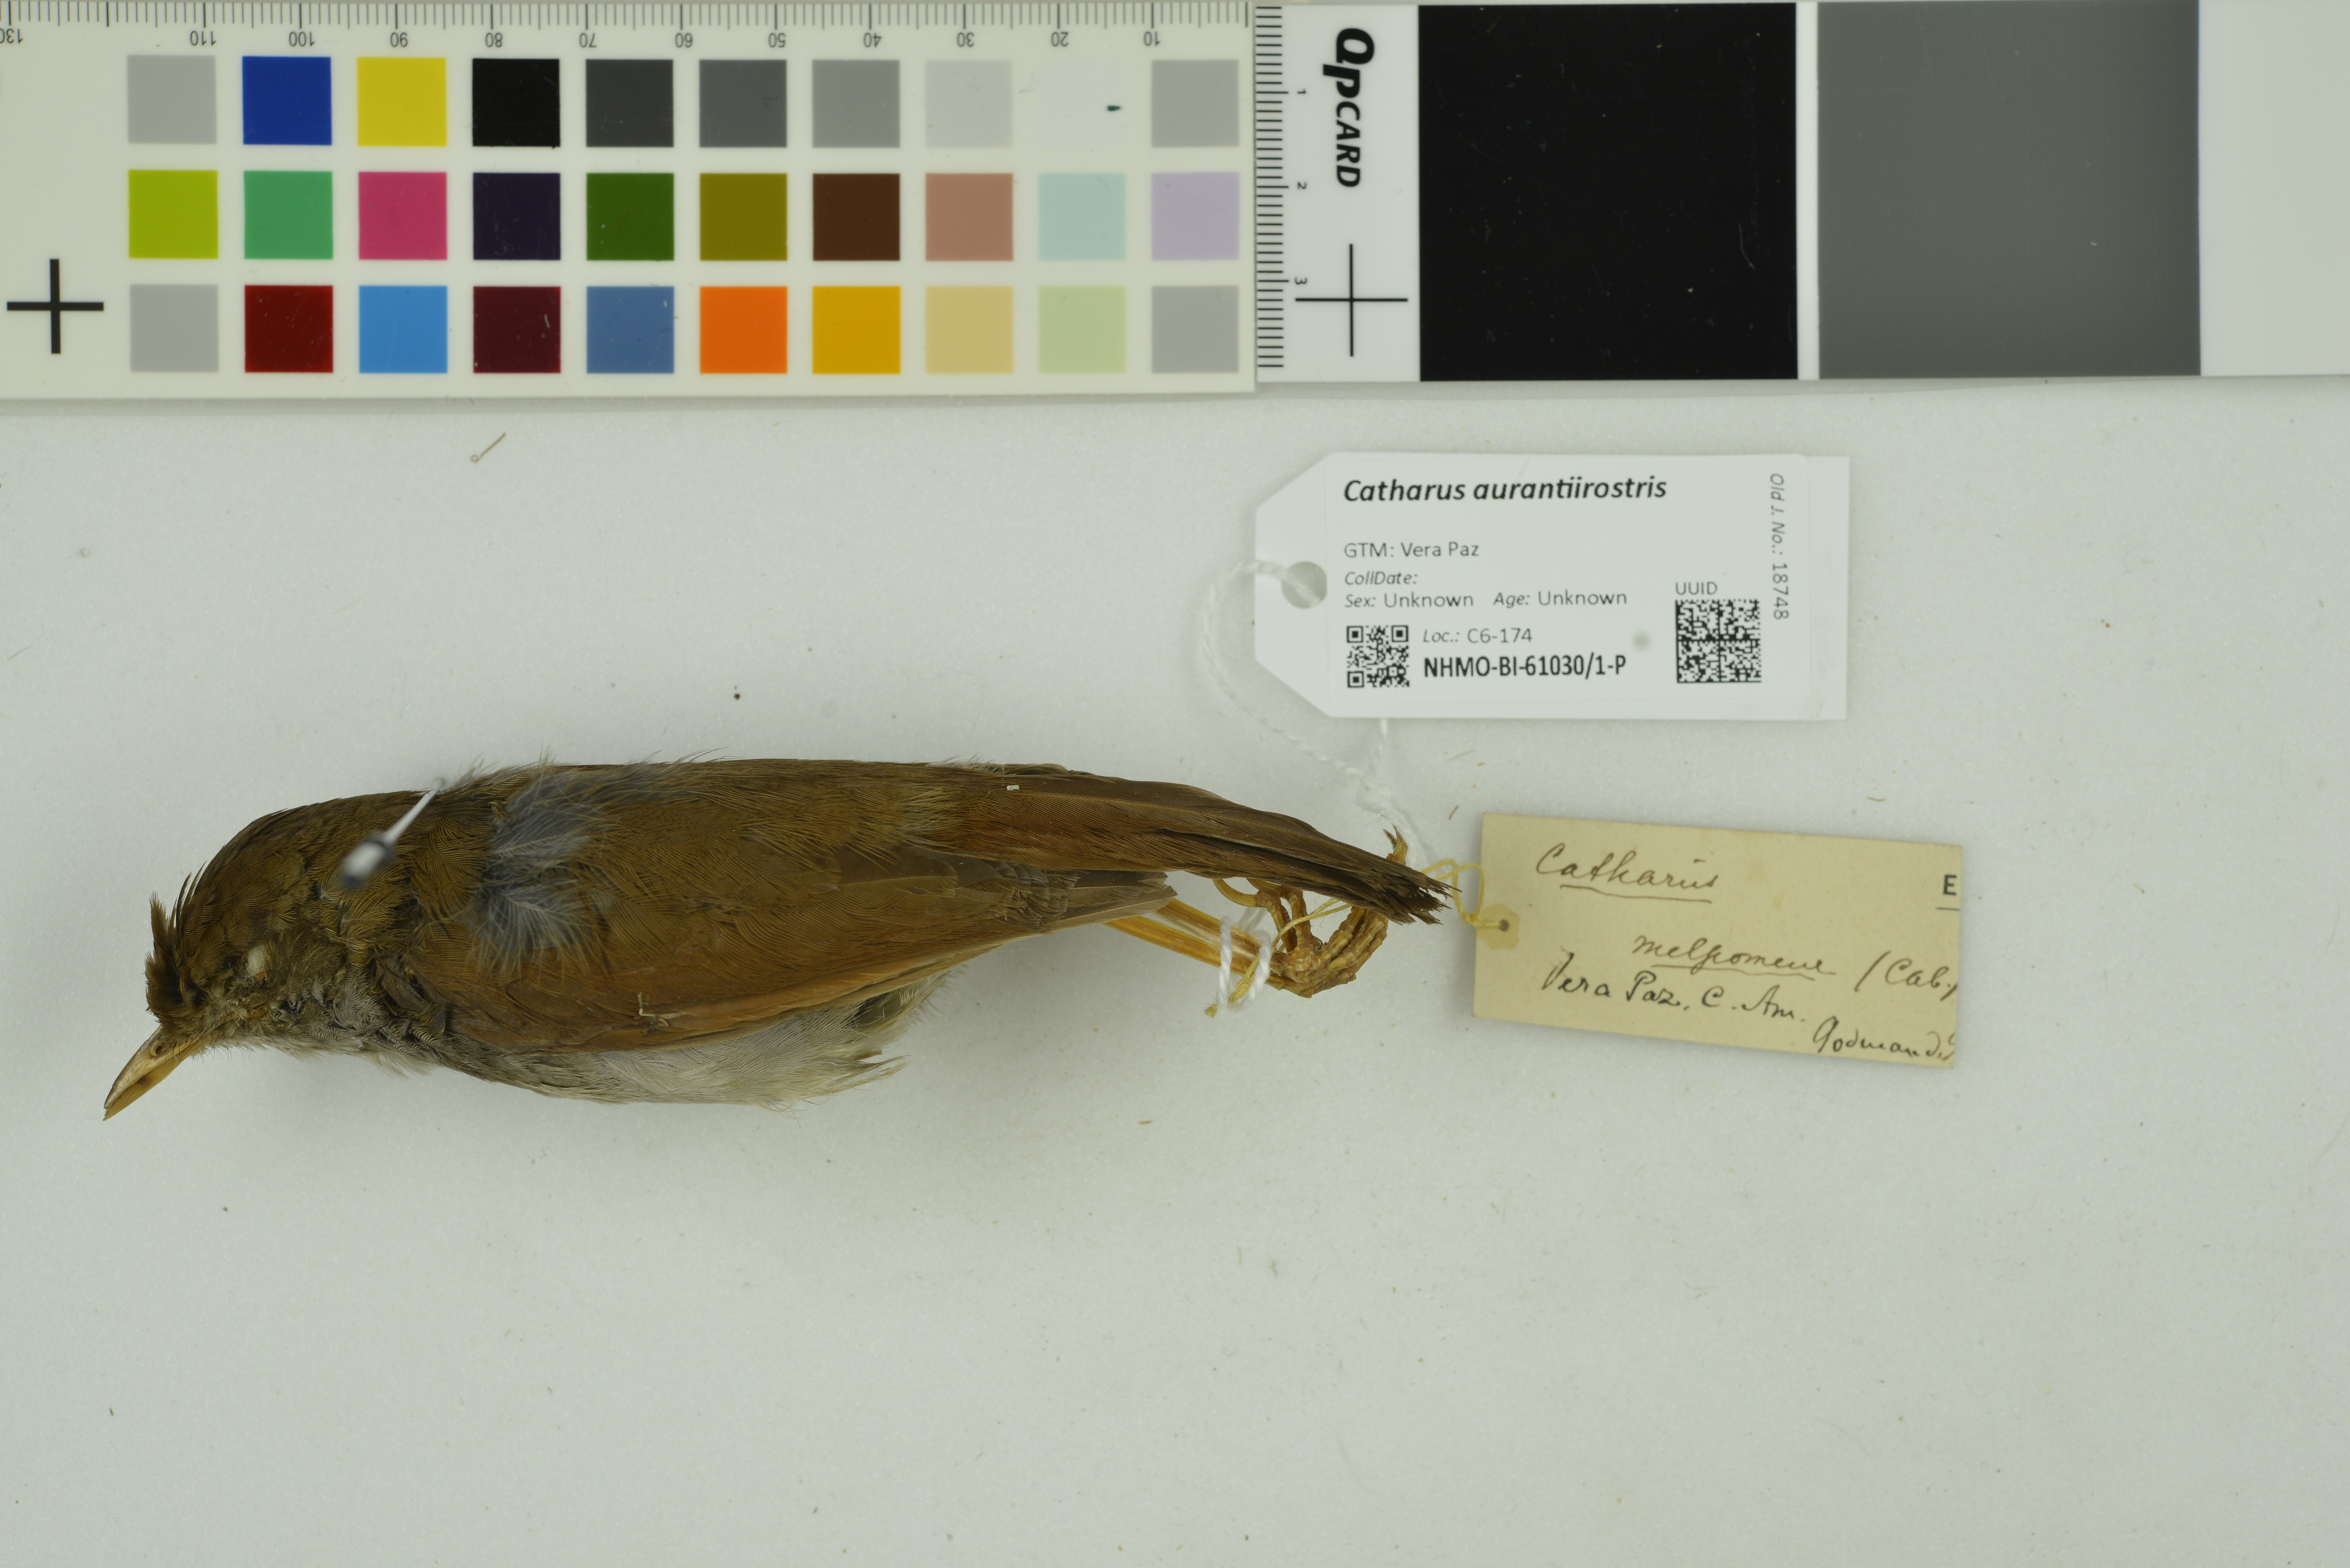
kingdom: Animalia
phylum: Chordata
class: Aves
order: Passeriformes
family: Turdidae
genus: Catharus
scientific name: Catharus aurantiirostris
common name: Orange-billed nightingale-thrush
